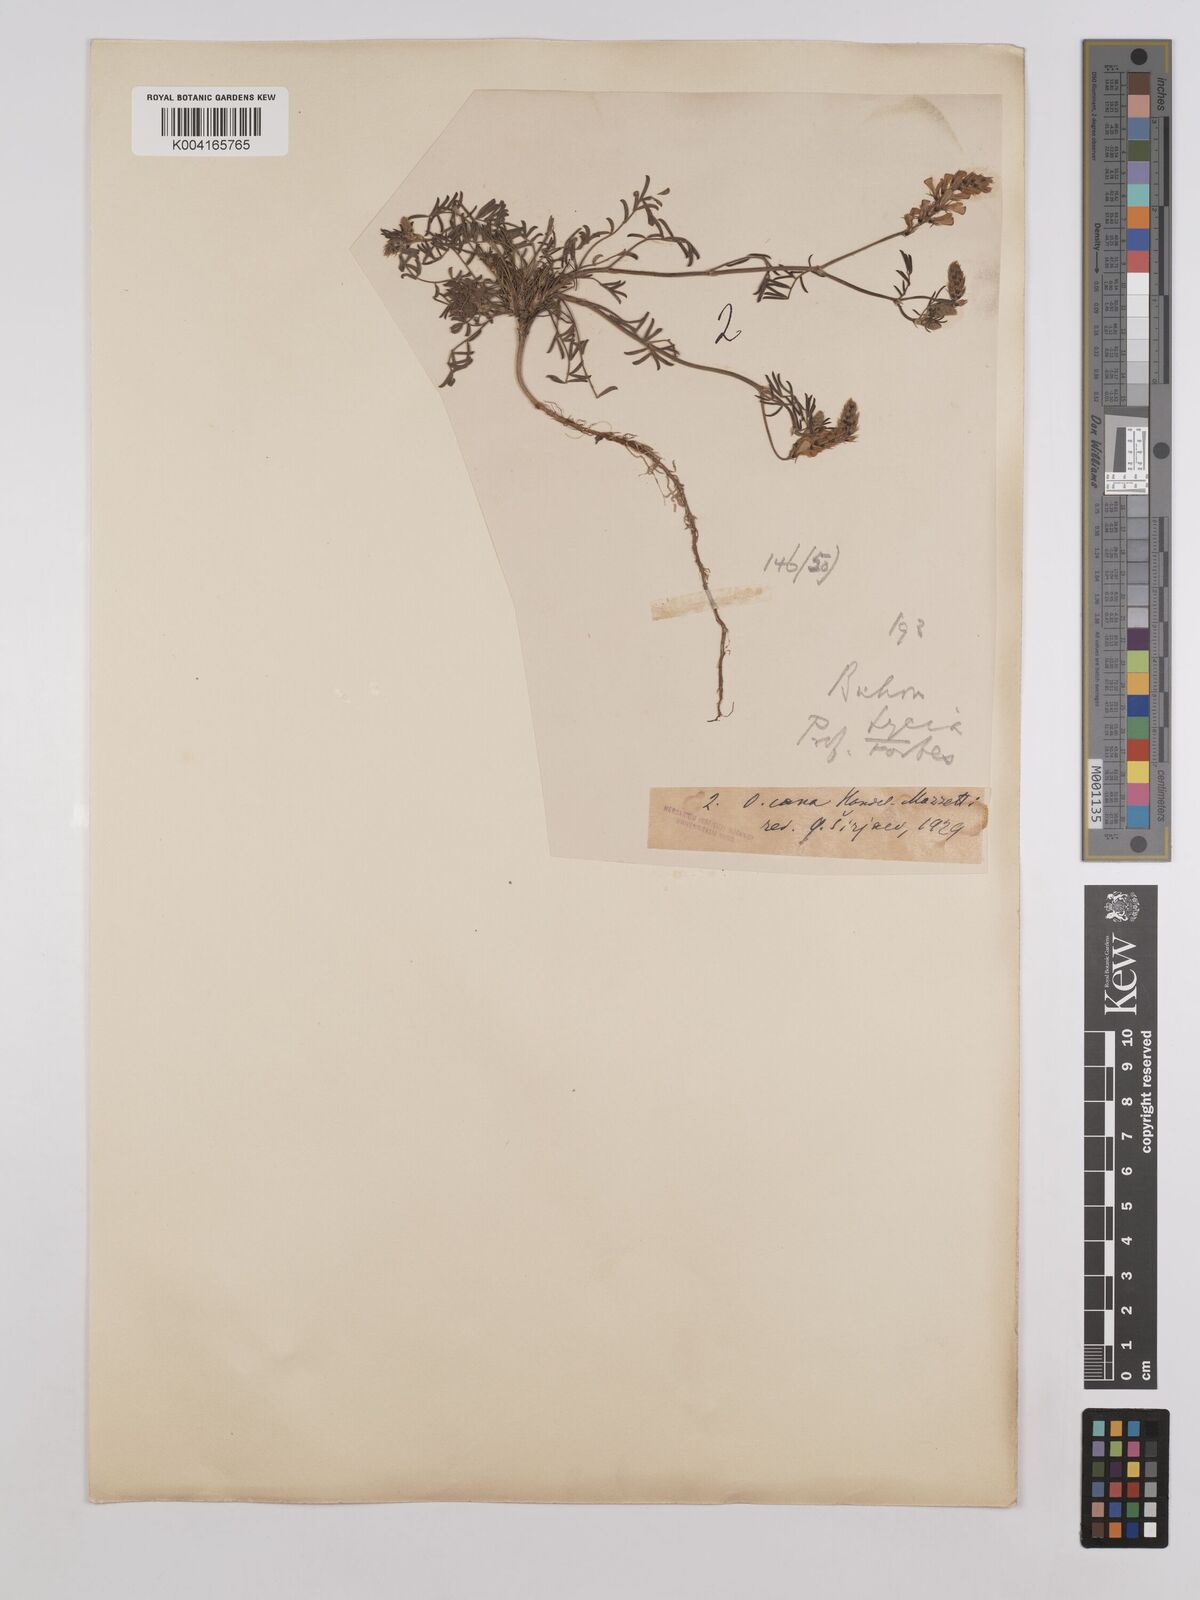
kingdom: Plantae
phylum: Tracheophyta
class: Magnoliopsida
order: Fabales
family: Fabaceae
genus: Onobrychis
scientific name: Onobrychis arenaria
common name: Sand esparcet
